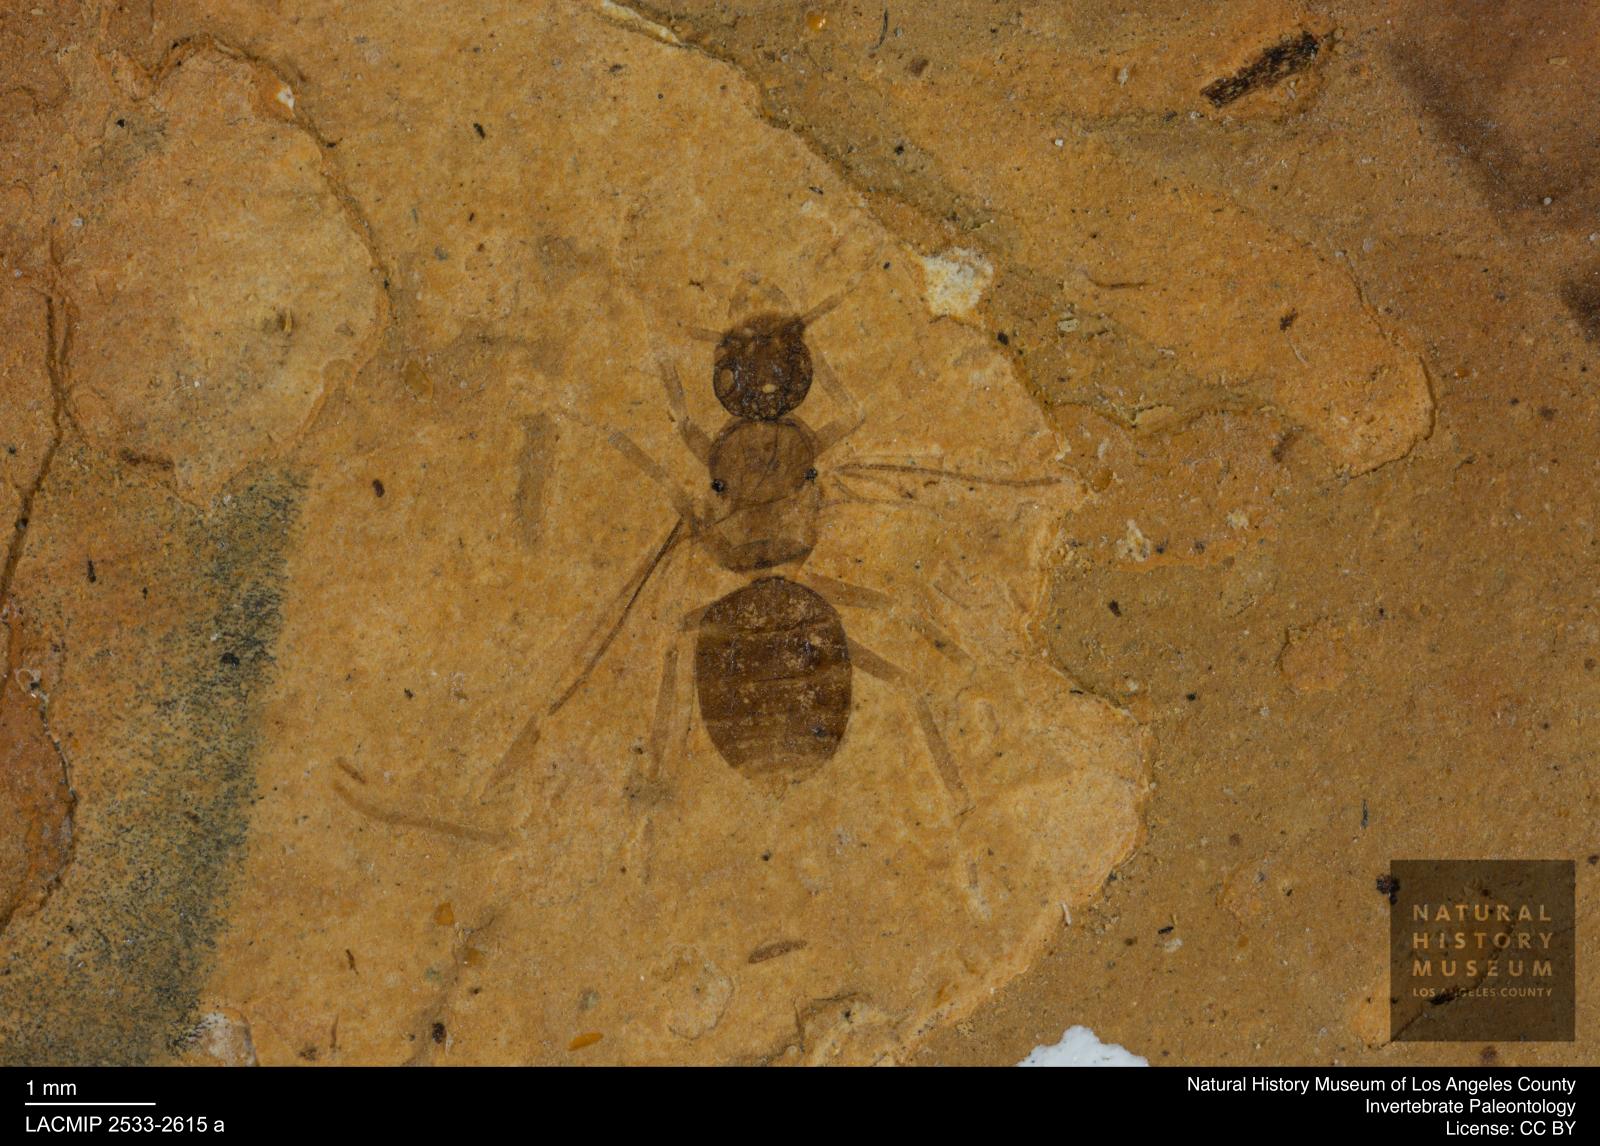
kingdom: Animalia
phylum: Arthropoda
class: Insecta
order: Hymenoptera
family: Formicidae
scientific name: Formicidae
